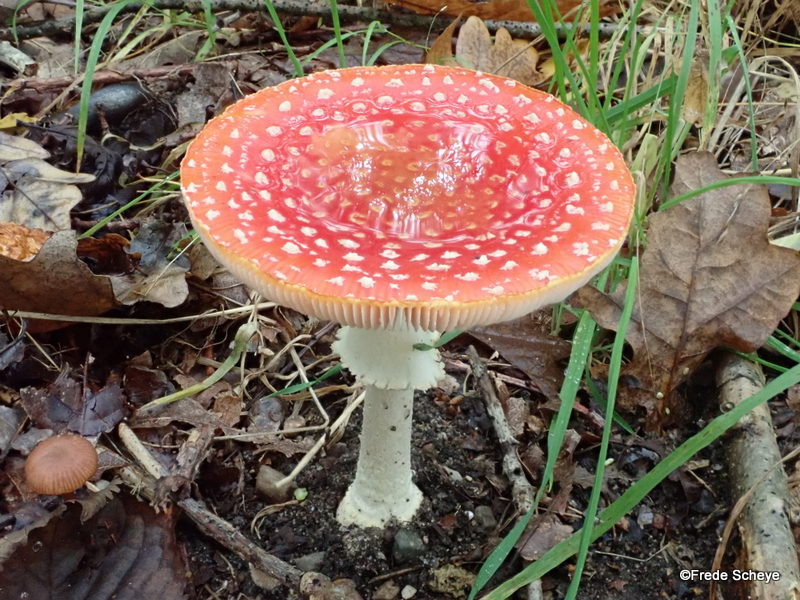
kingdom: Fungi
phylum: Basidiomycota
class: Agaricomycetes
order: Agaricales
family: Amanitaceae
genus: Amanita
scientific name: Amanita muscaria
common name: rød fluesvamp
